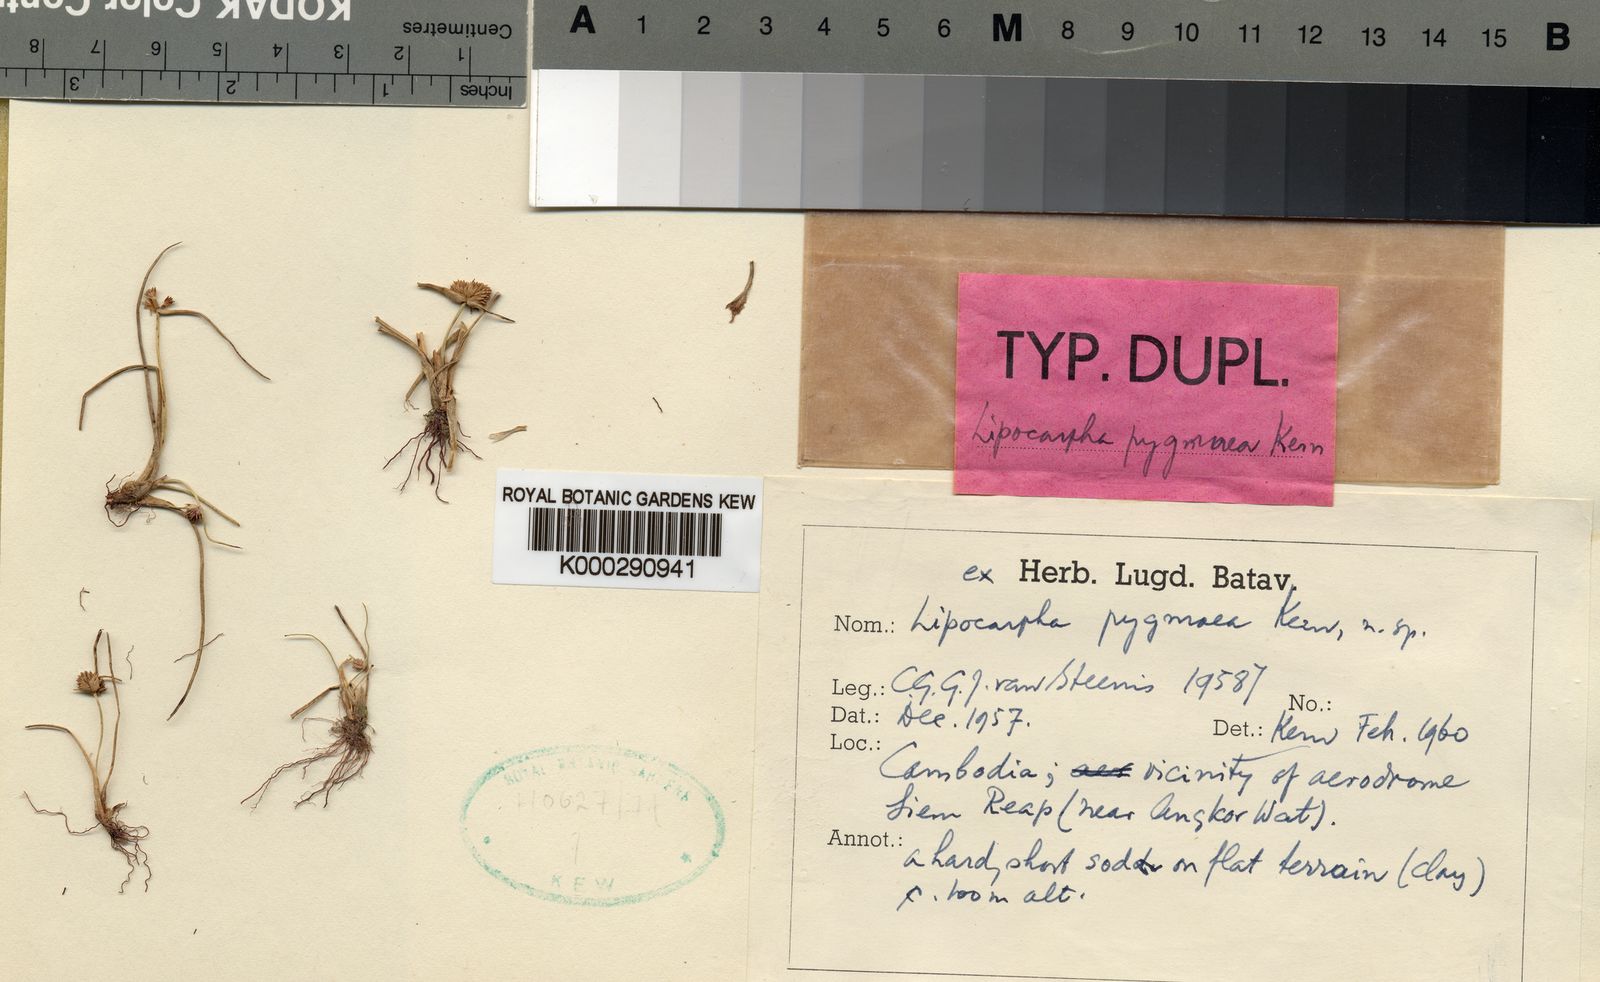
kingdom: Plantae
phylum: Tracheophyta
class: Liliopsida
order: Poales
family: Cyperaceae
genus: Cyperus
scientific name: Cyperus lipopygmaeus
